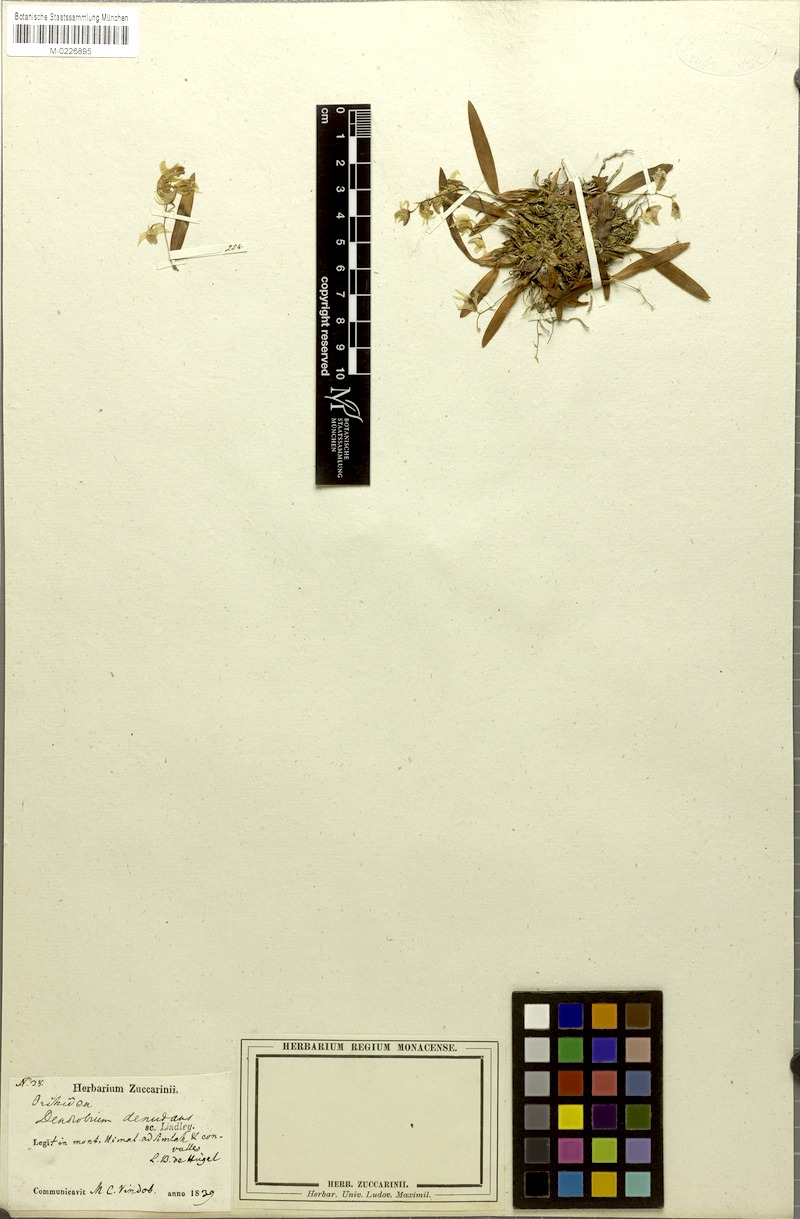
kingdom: Plantae
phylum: Tracheophyta
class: Liliopsida
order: Asparagales
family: Orchidaceae
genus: Dendrobium
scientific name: Dendrobium denudans
